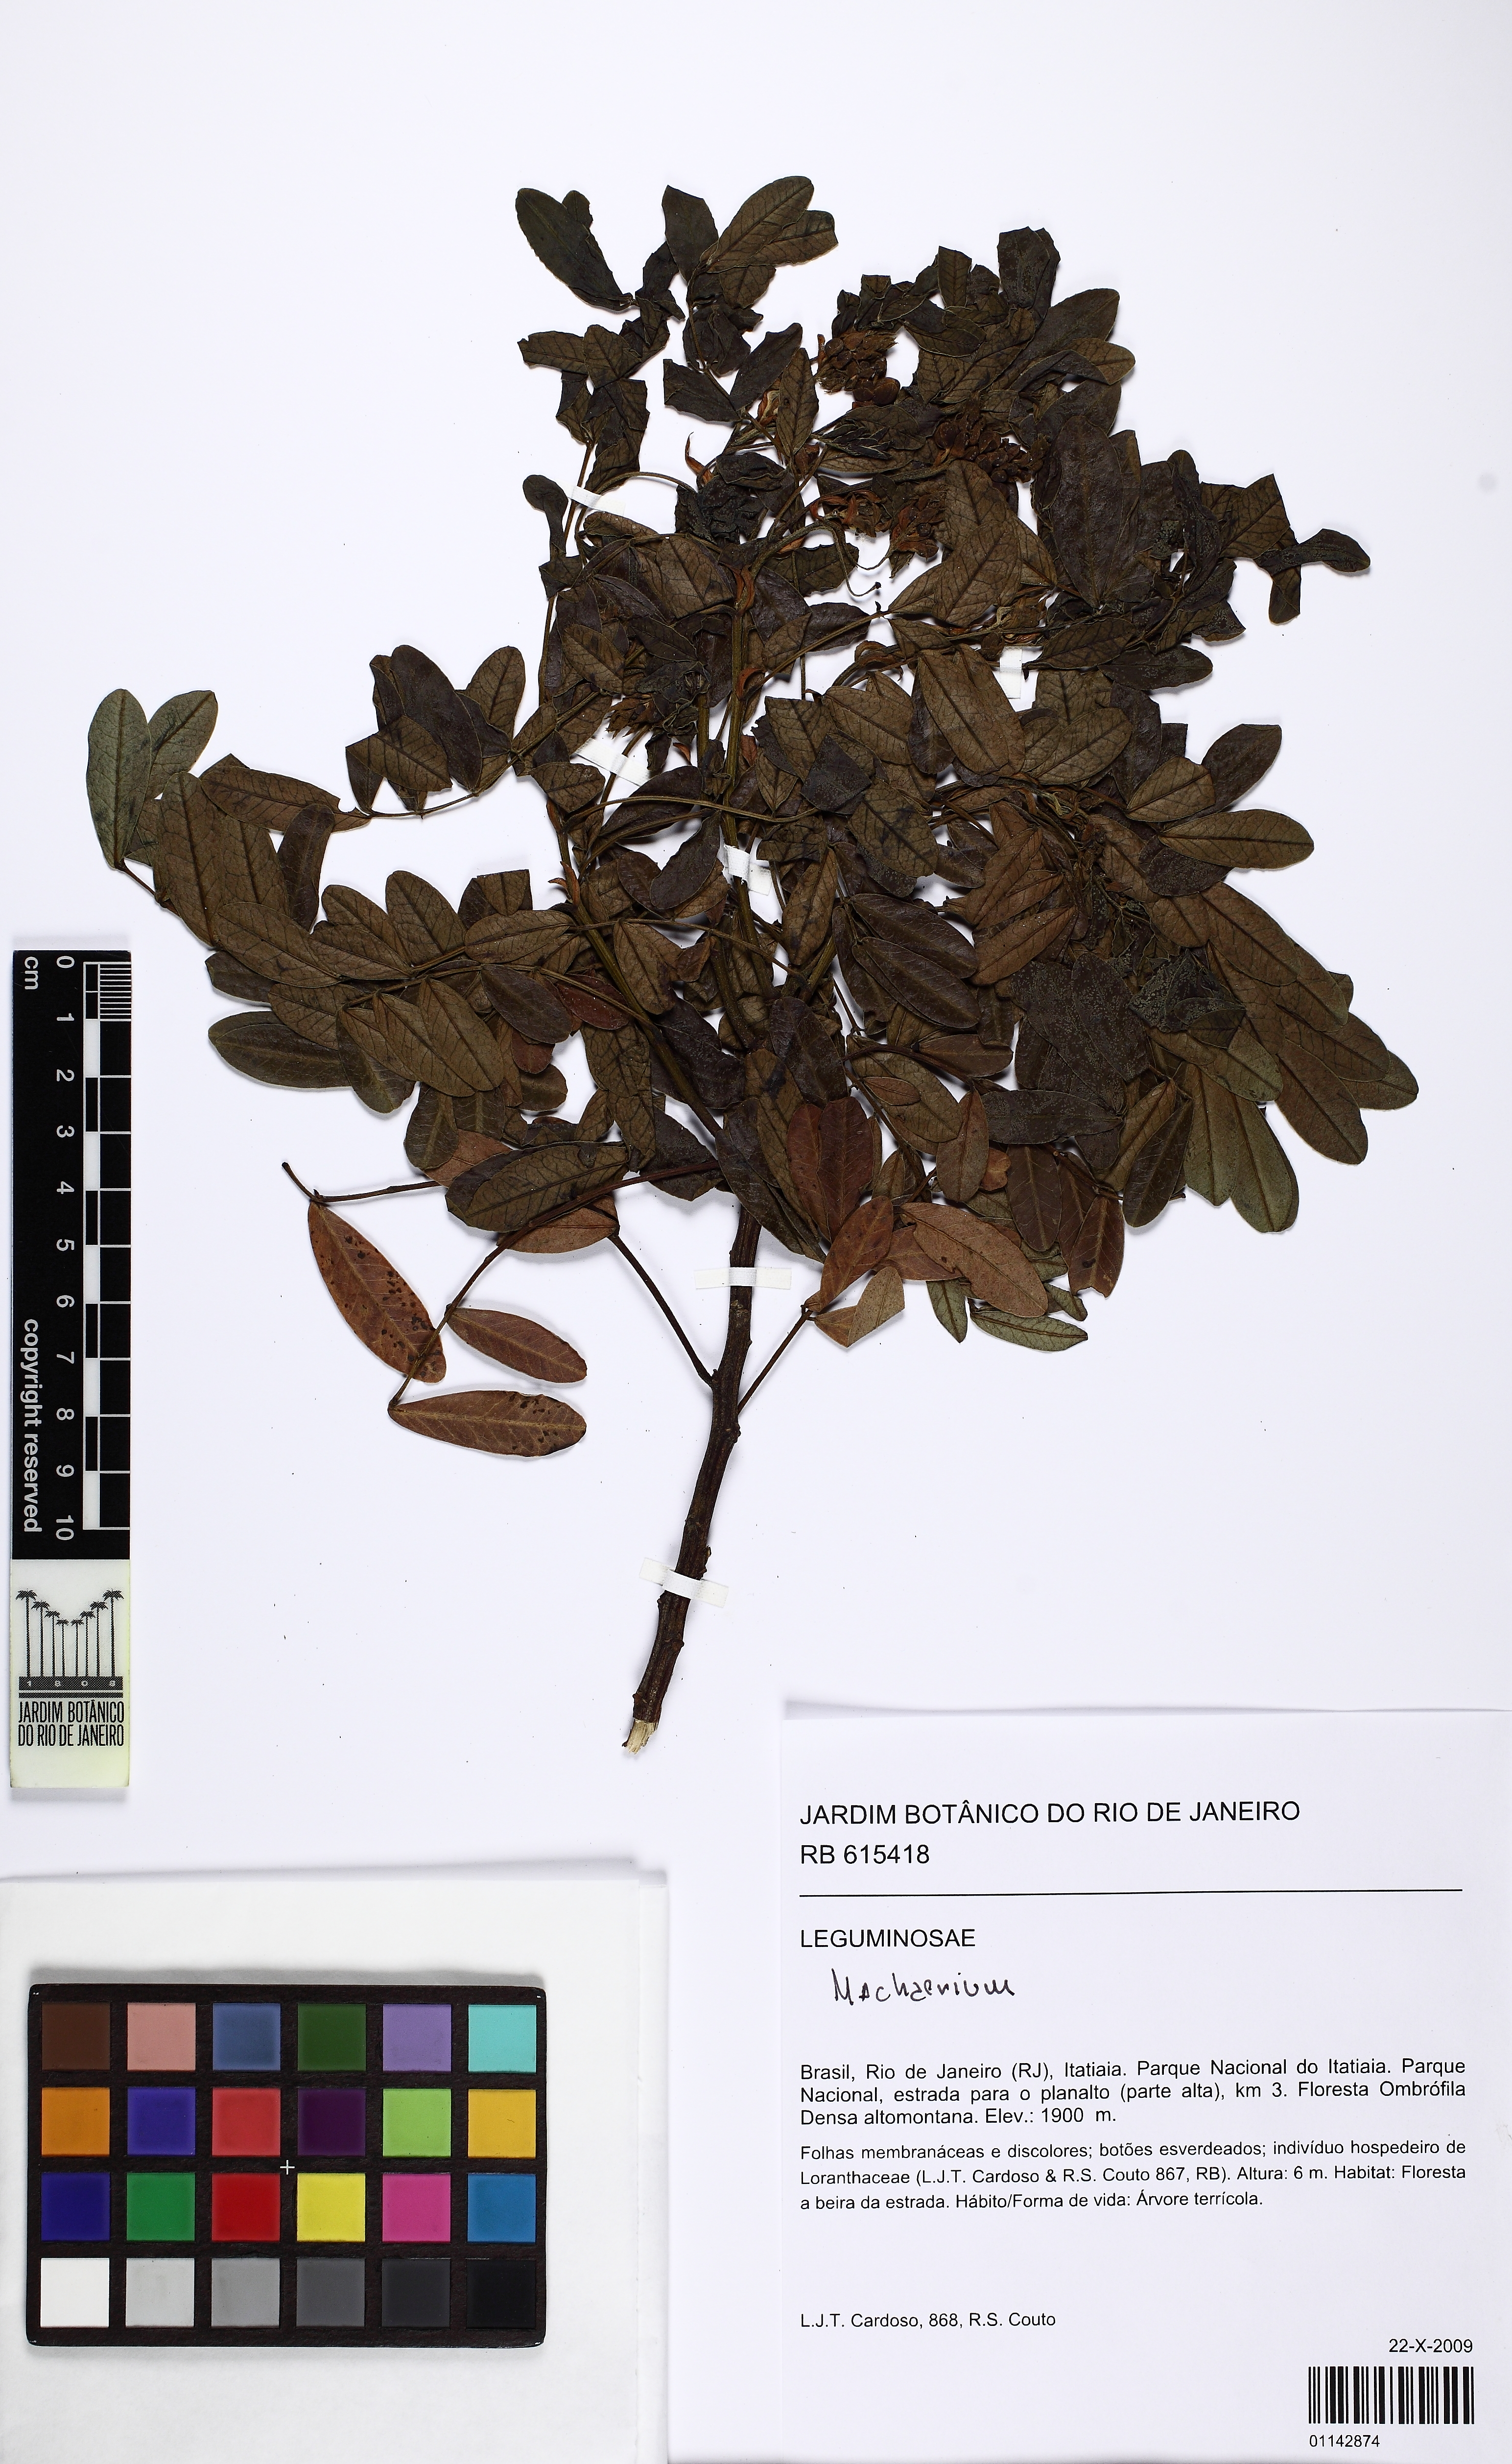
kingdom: Plantae
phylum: Tracheophyta
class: Magnoliopsida
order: Fabales
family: Fabaceae
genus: Swartzia
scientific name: Swartzia
